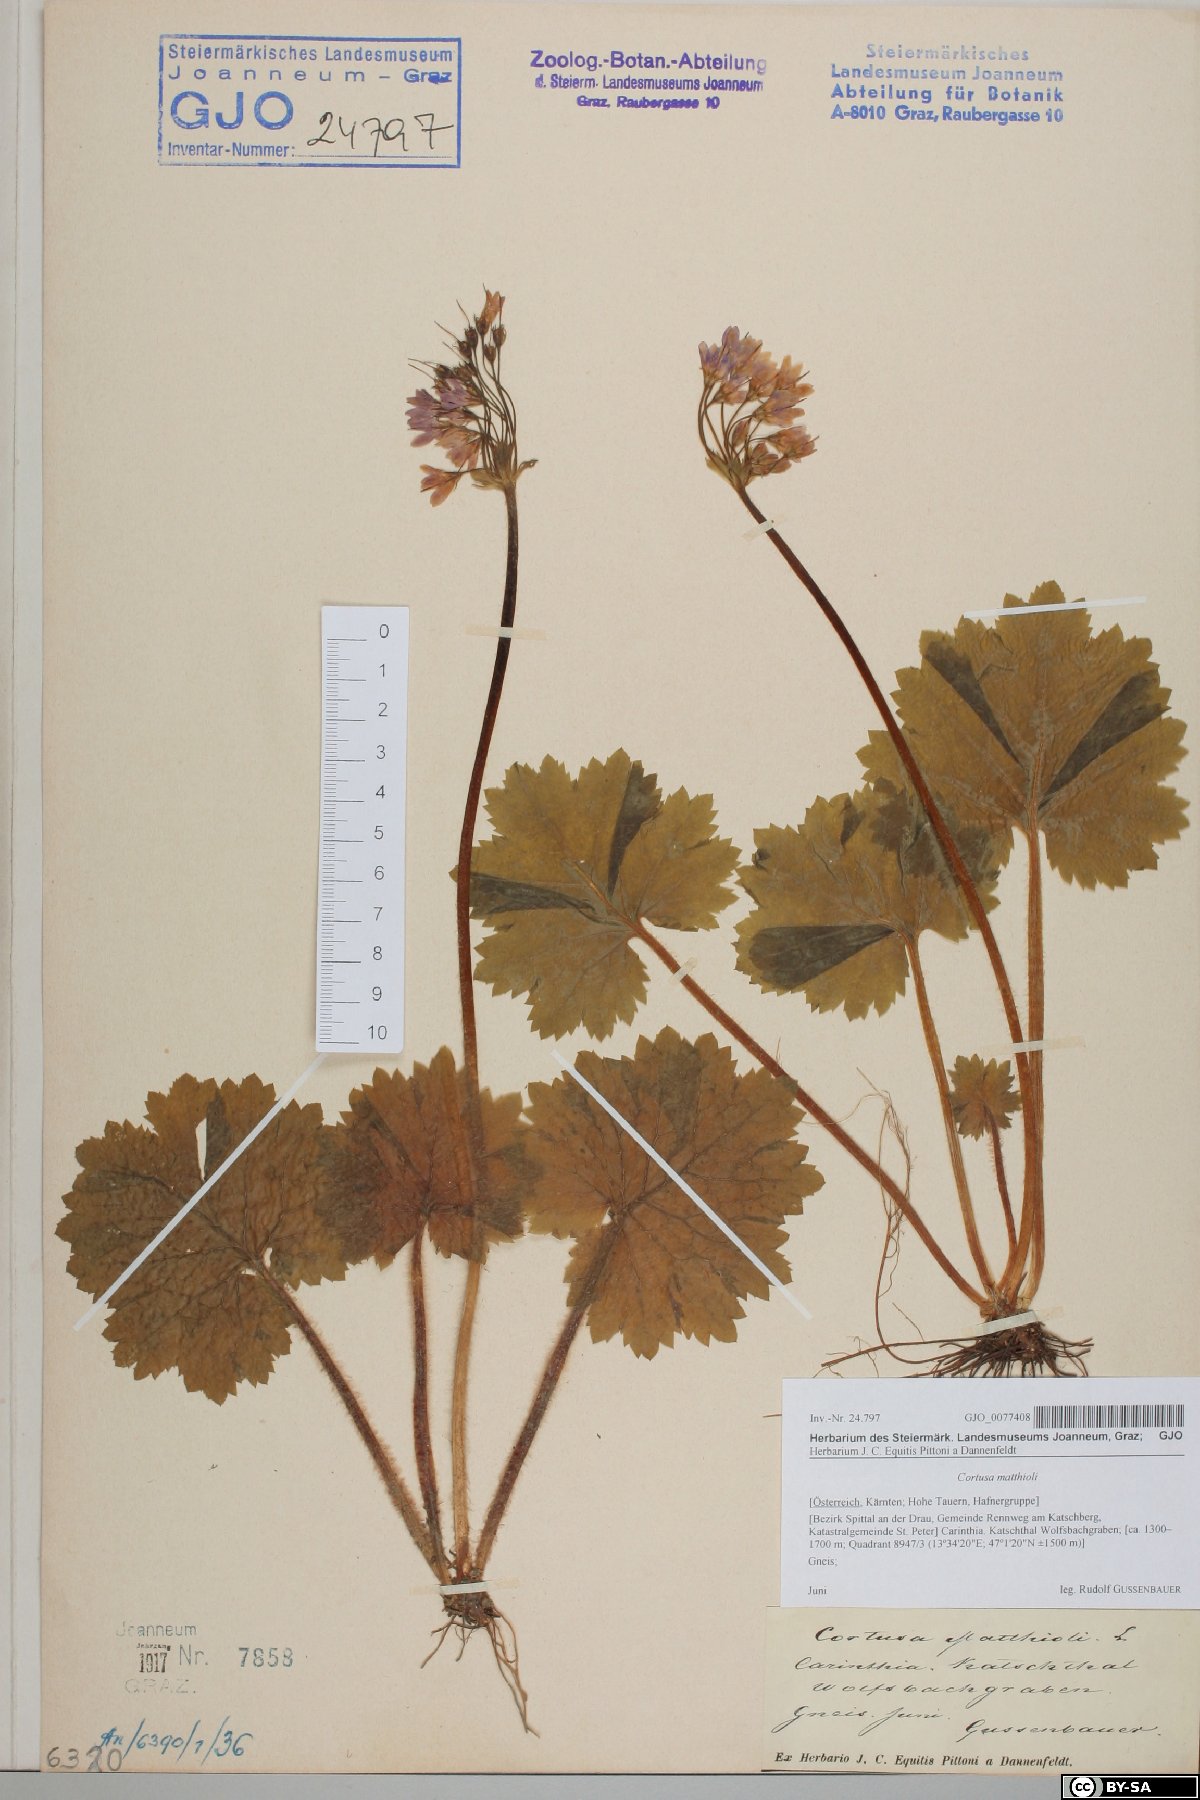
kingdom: Plantae
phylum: Tracheophyta
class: Magnoliopsida
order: Ericales
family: Primulaceae
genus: Primula
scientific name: Primula matthioli
